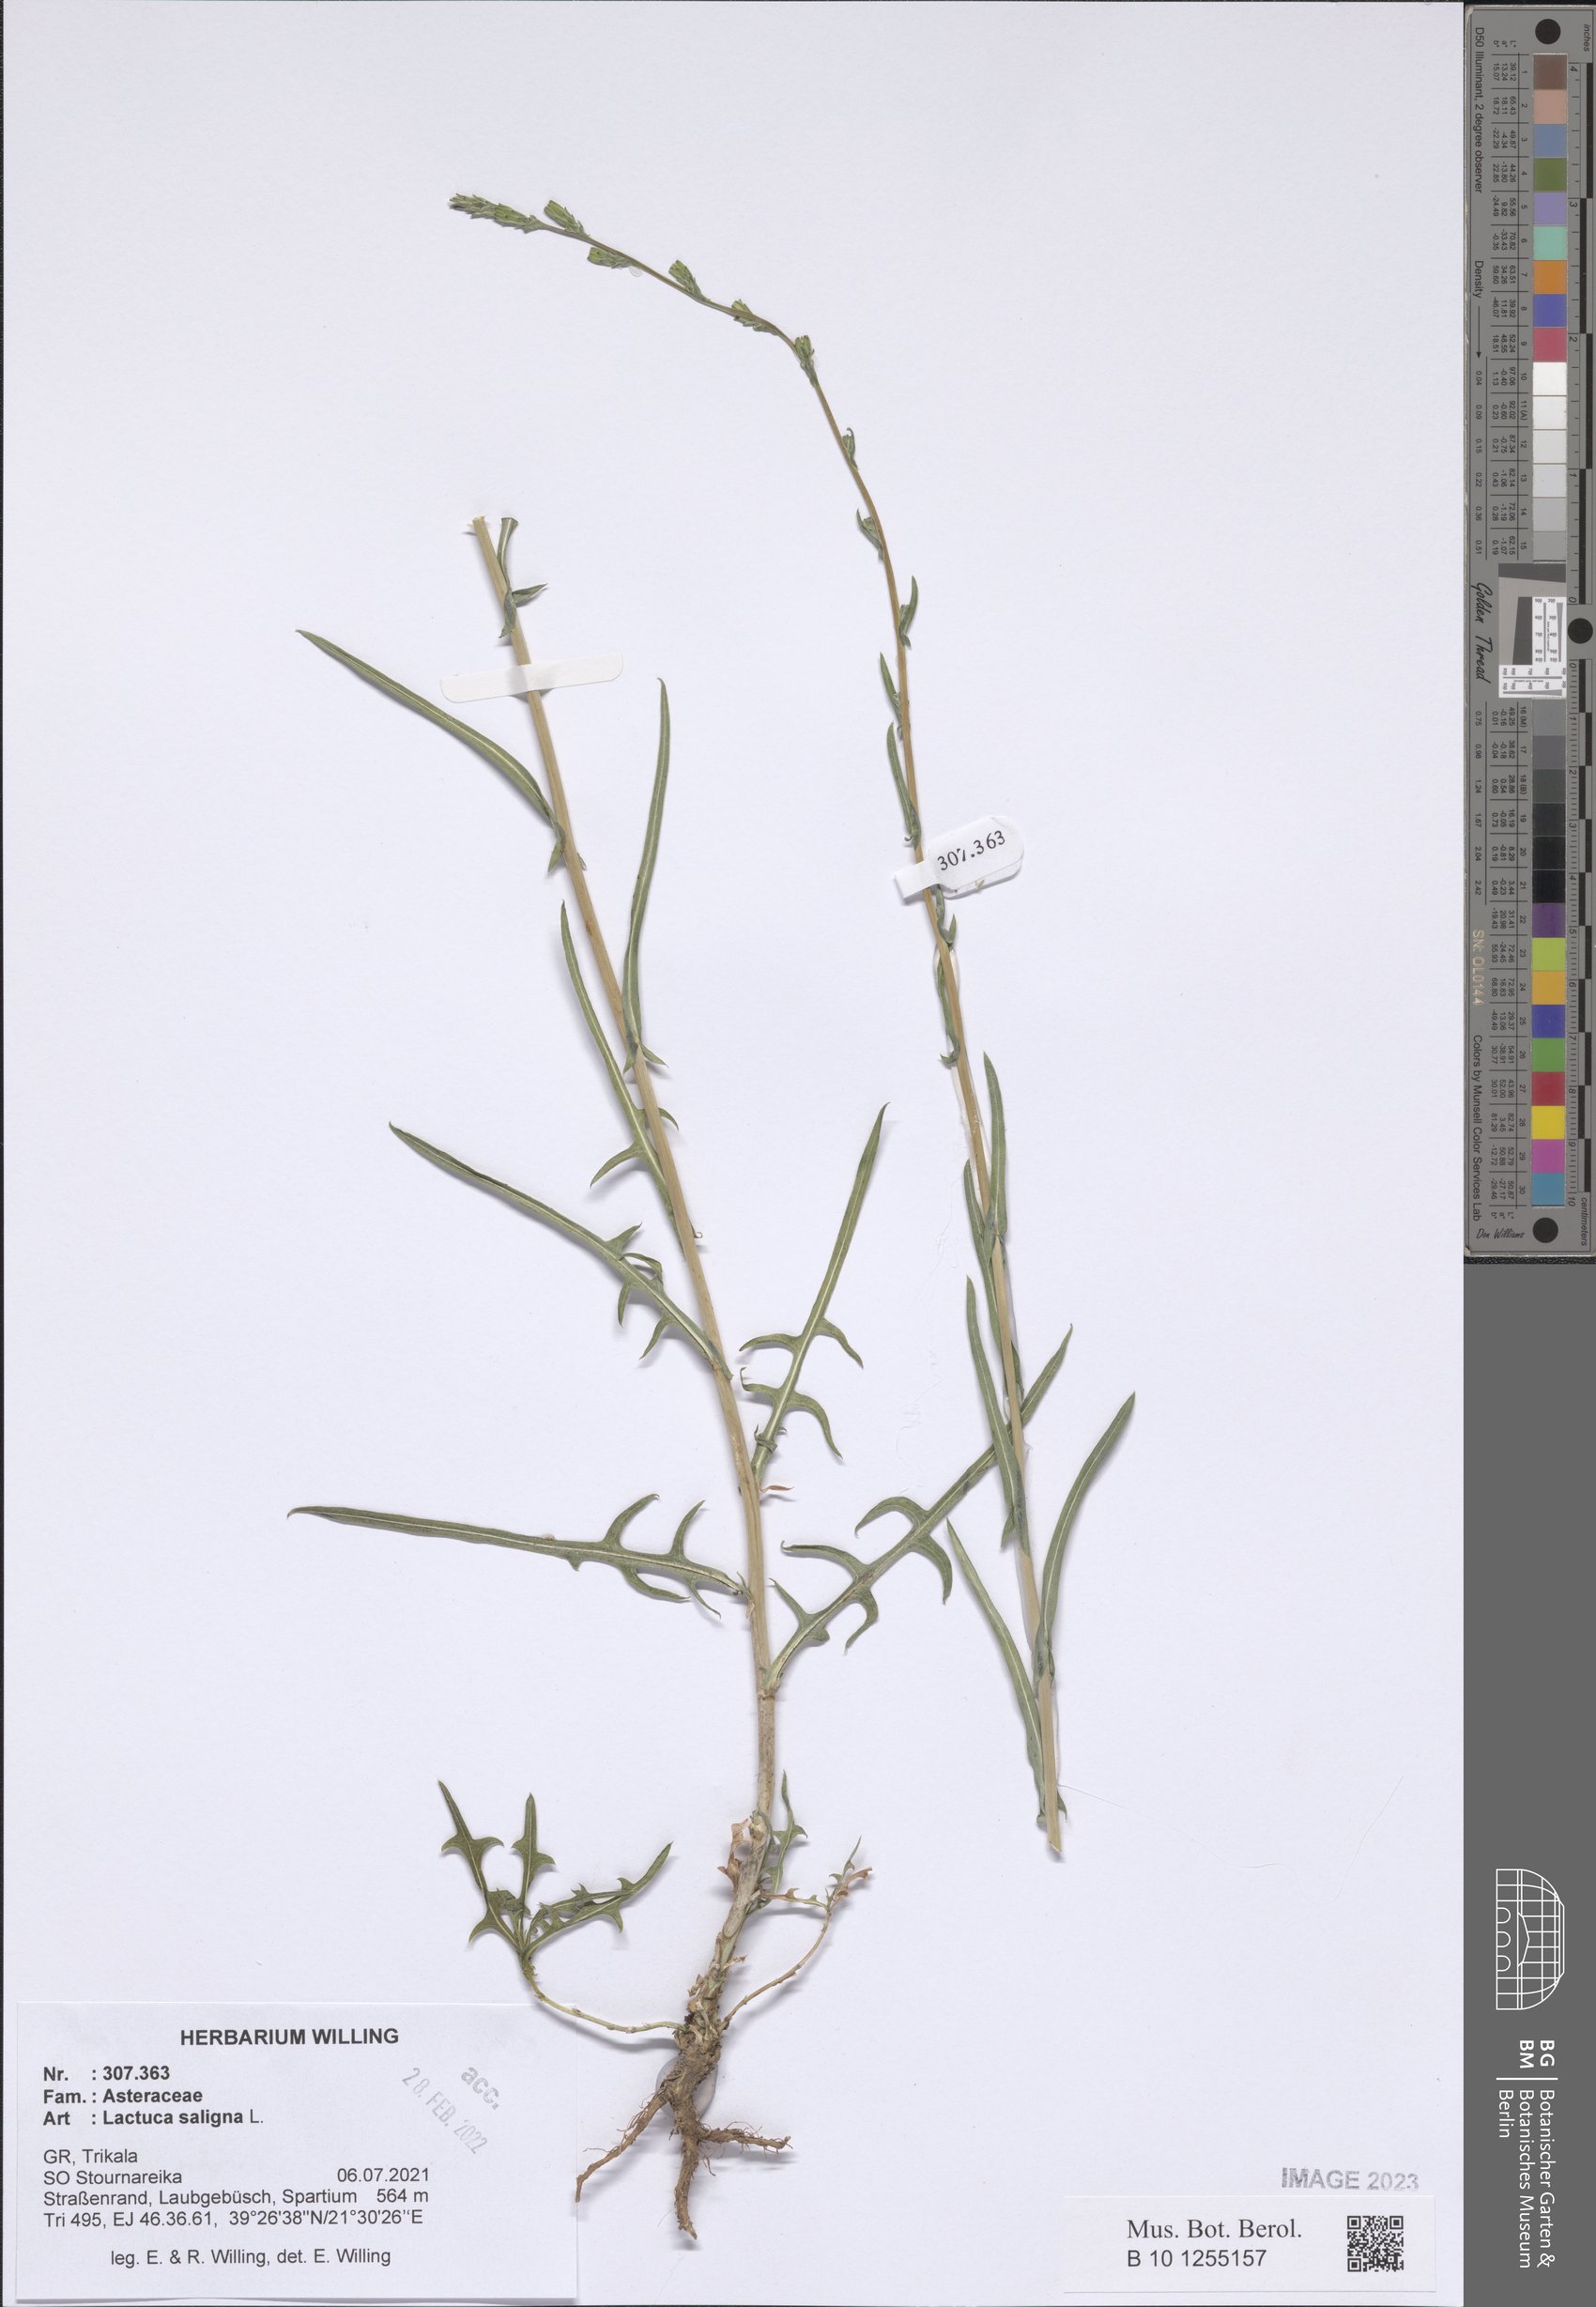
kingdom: Plantae
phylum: Tracheophyta
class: Magnoliopsida
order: Asterales
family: Asteraceae
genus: Lactuca
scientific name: Lactuca saligna
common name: Wild lettuce
